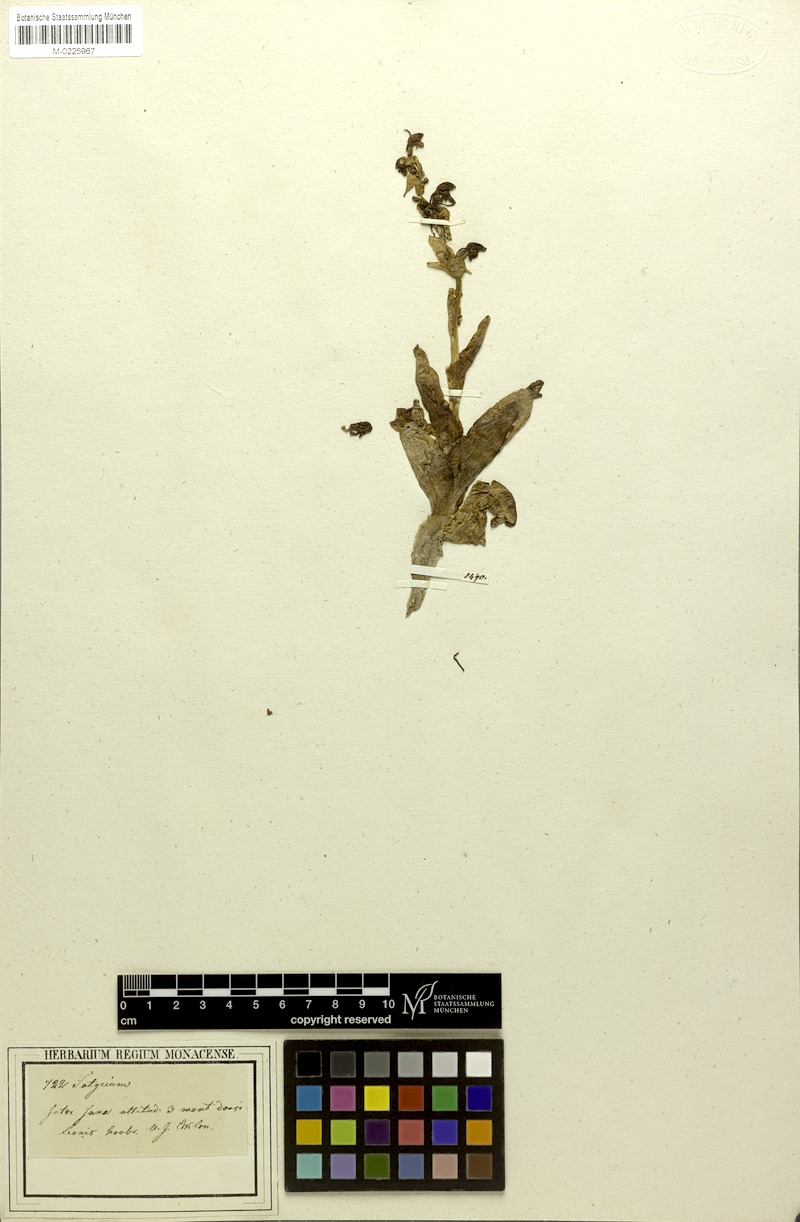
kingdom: Plantae
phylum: Tracheophyta
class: Liliopsida
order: Asparagales
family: Orchidaceae
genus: Satyrium
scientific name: Satyrium longicolle
